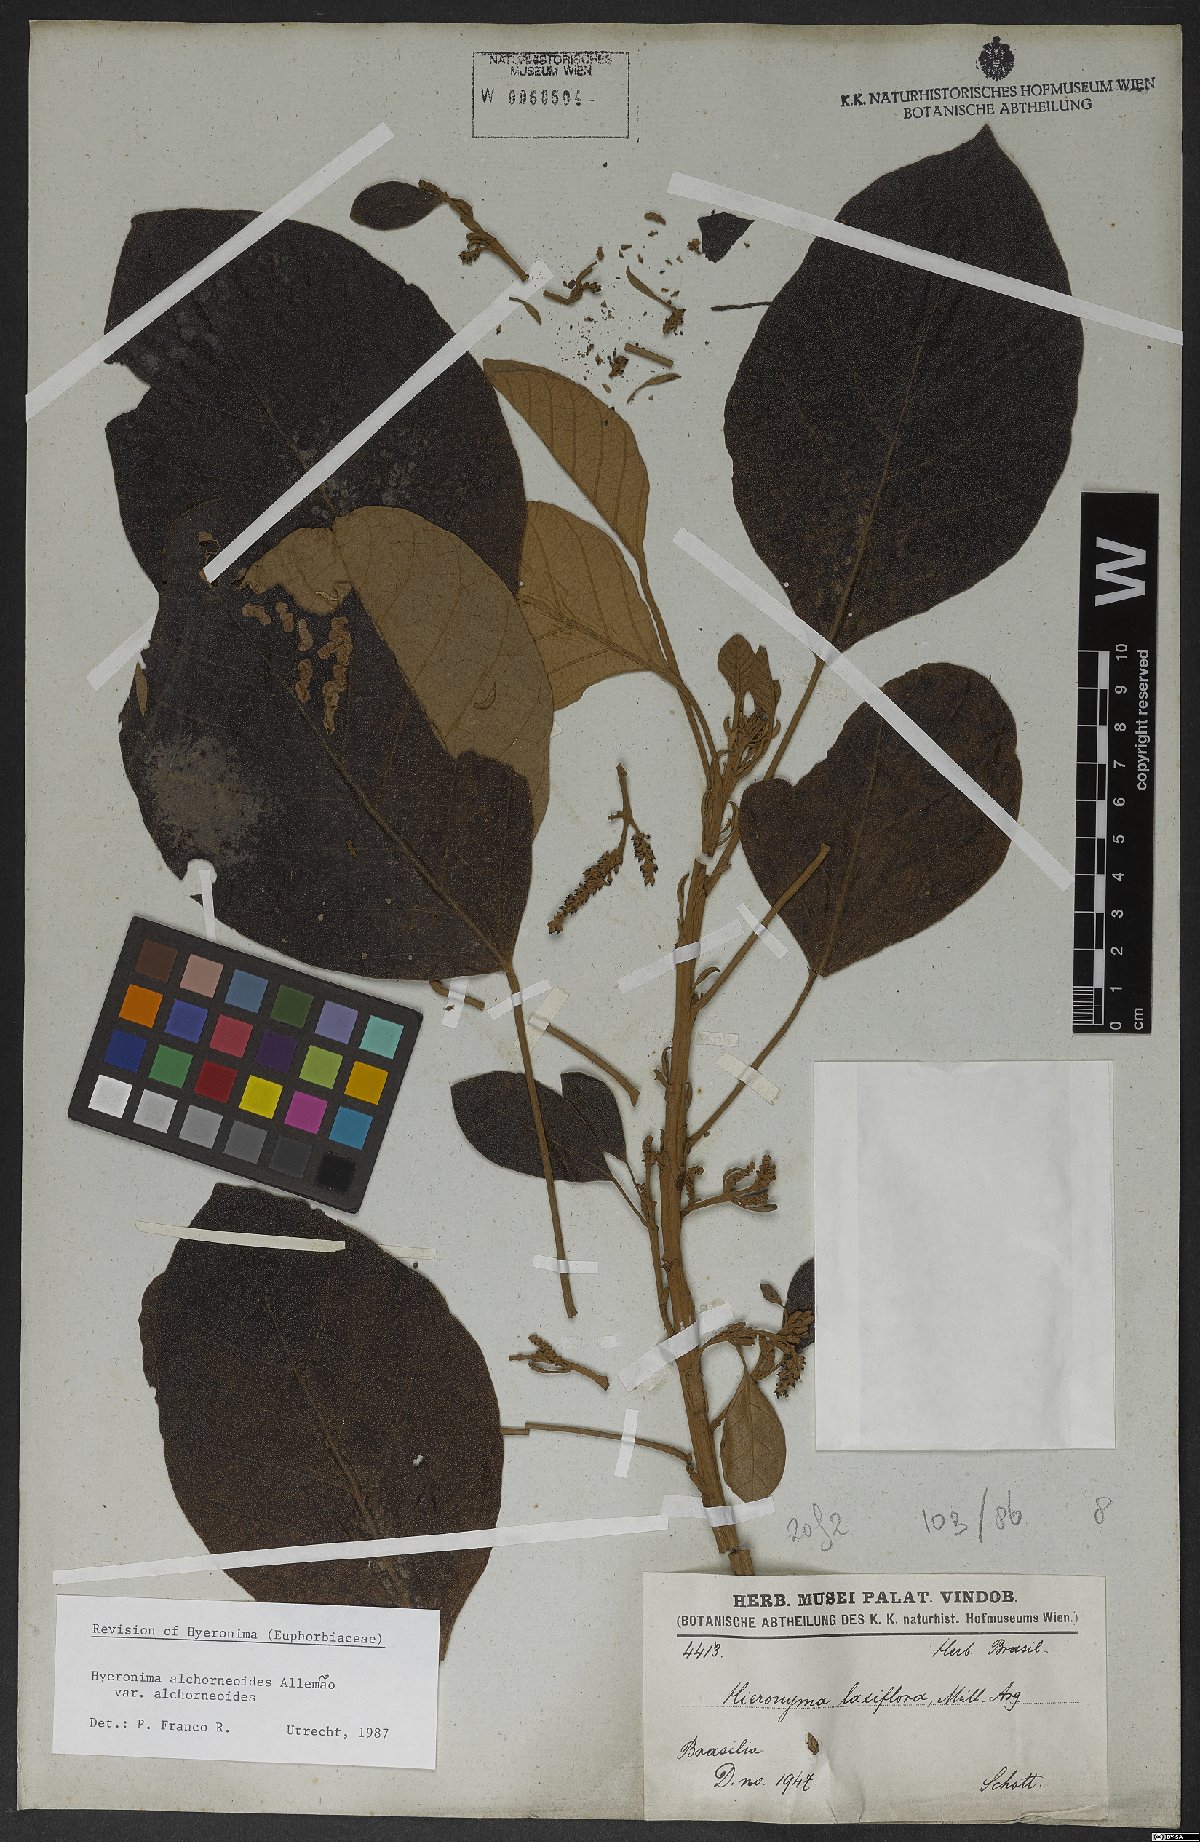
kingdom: Plantae
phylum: Tracheophyta
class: Magnoliopsida
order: Malpighiales
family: Phyllanthaceae
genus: Hieronyma
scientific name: Hieronyma alchorneoides
